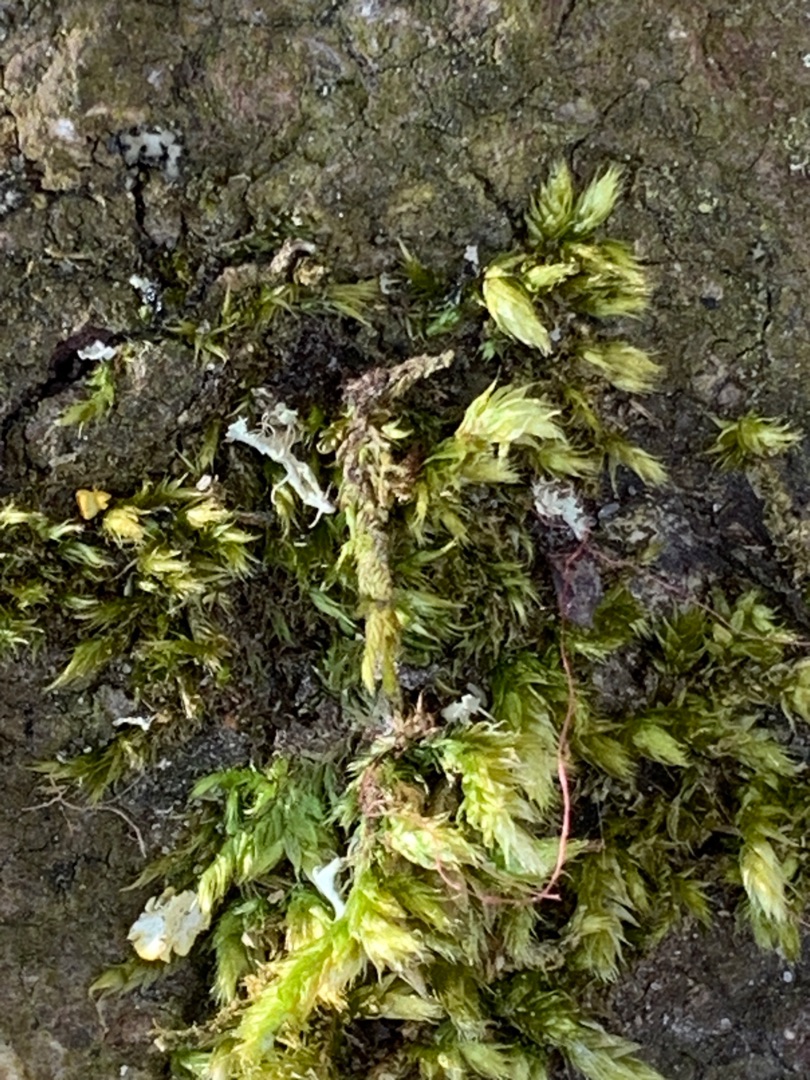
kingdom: Plantae
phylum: Bryophyta
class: Bryopsida
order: Hypnales
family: Brachytheciaceae
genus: Brachythecium
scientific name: Brachythecium rutabulum
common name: Almindelig kortkapsel
